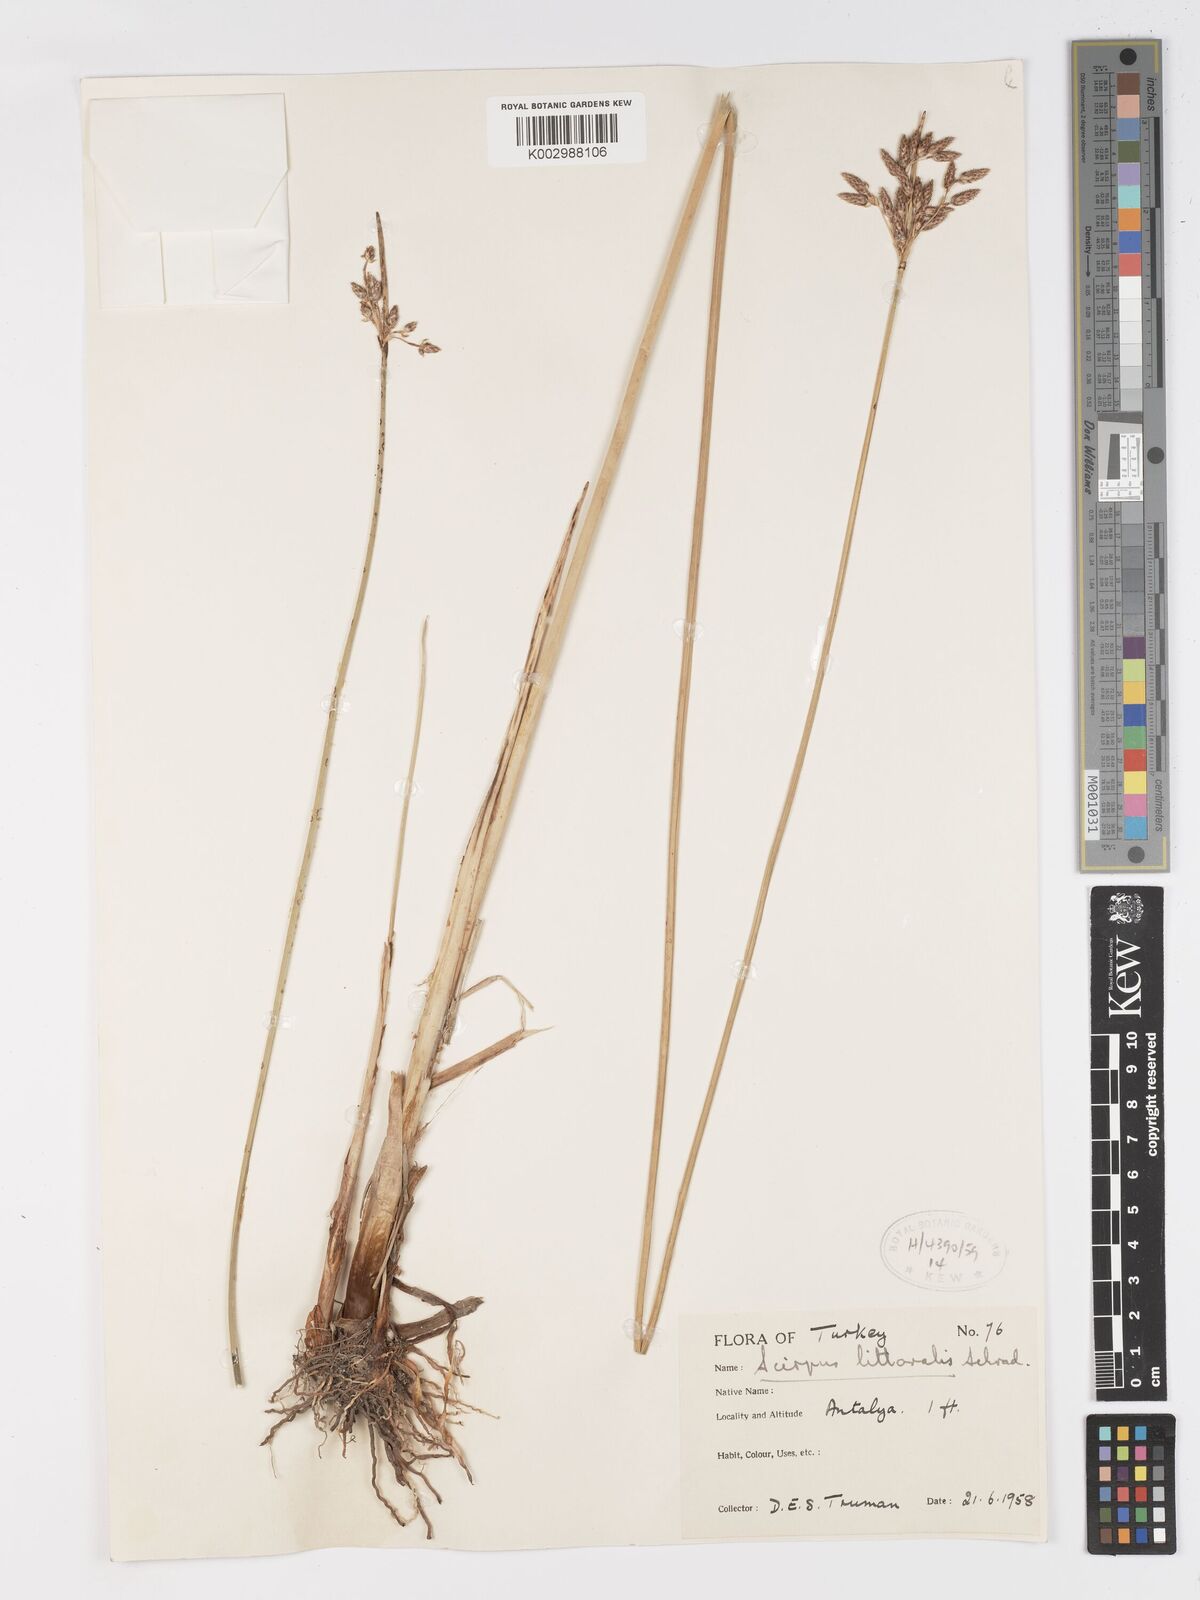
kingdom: Plantae
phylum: Tracheophyta
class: Liliopsida
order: Poales
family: Cyperaceae
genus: Schoenoplectus
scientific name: Schoenoplectus litoralis
